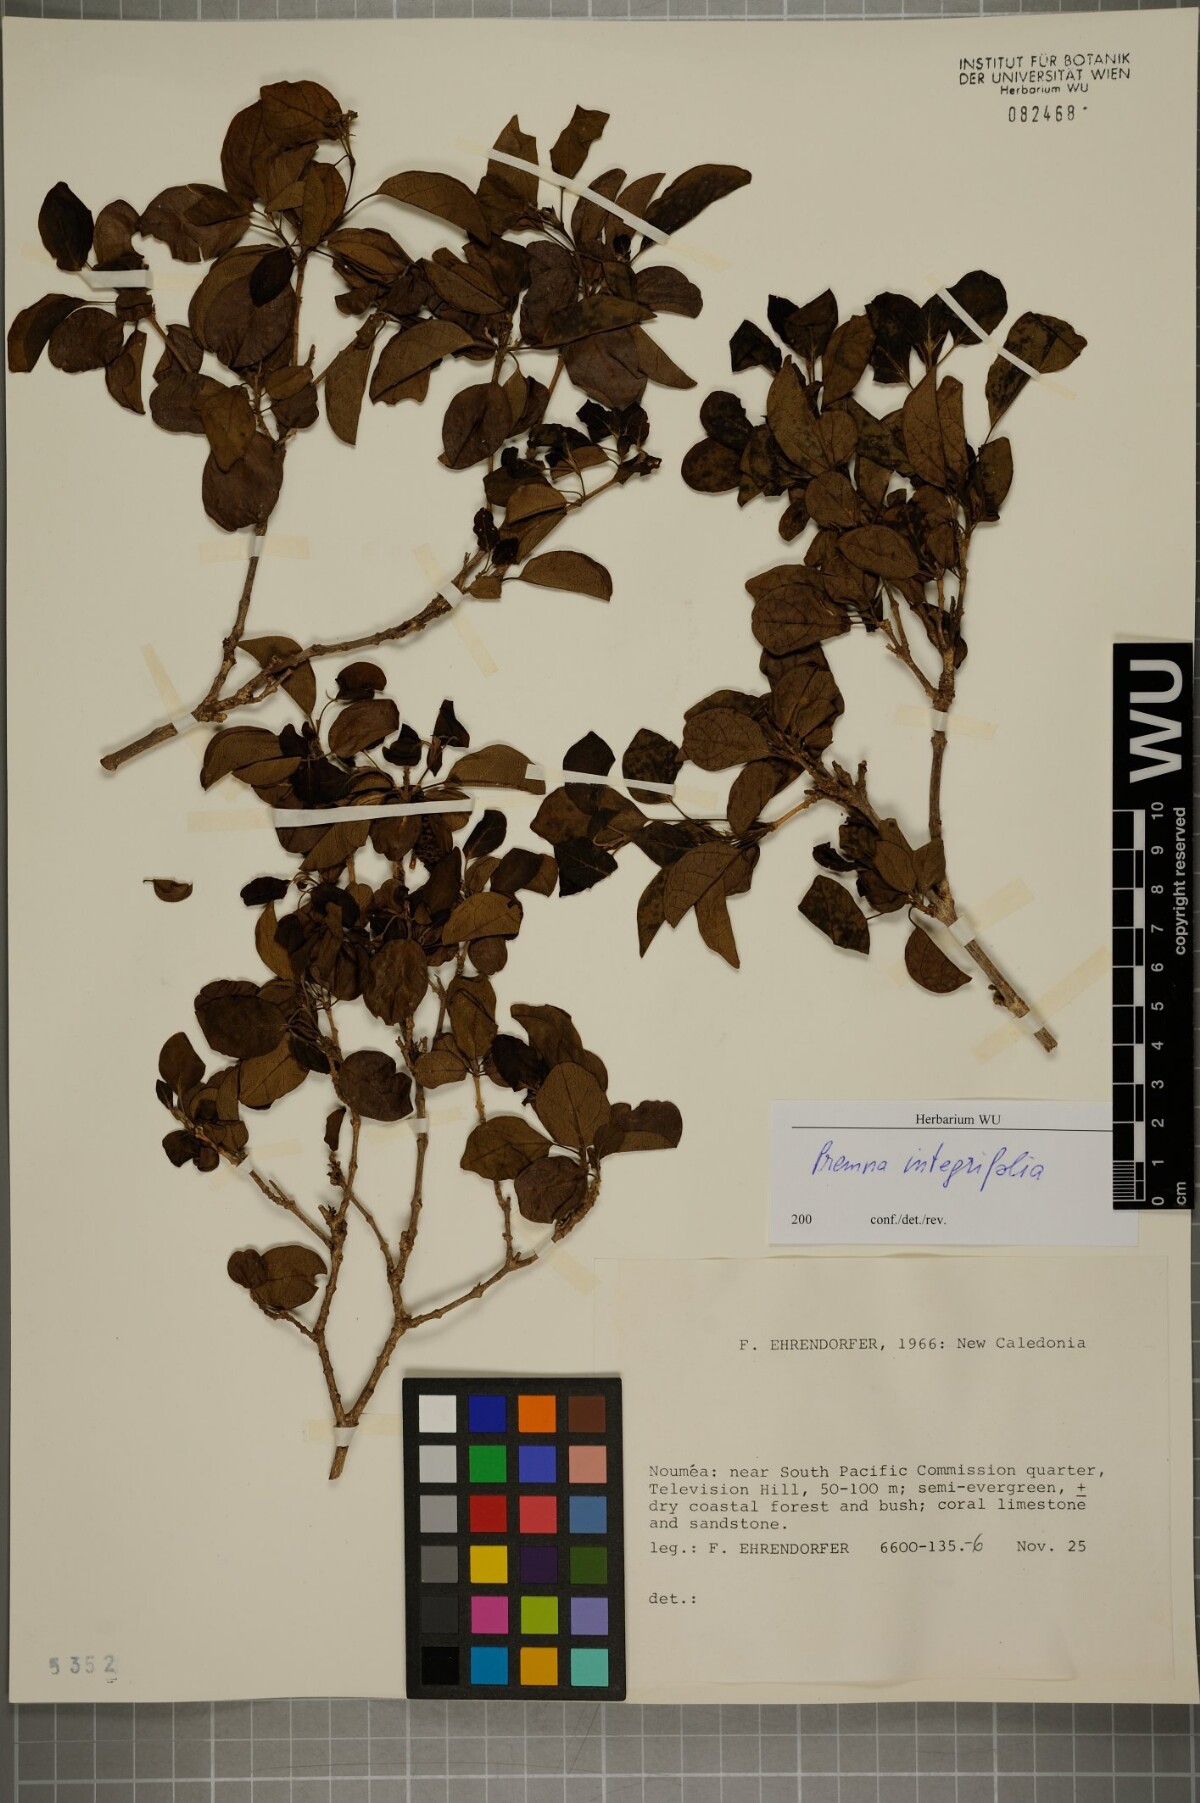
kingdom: Plantae
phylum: Tracheophyta
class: Magnoliopsida
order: Lamiales
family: Lamiaceae
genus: Premna
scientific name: Premna serratifolia
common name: Bastard guelder
